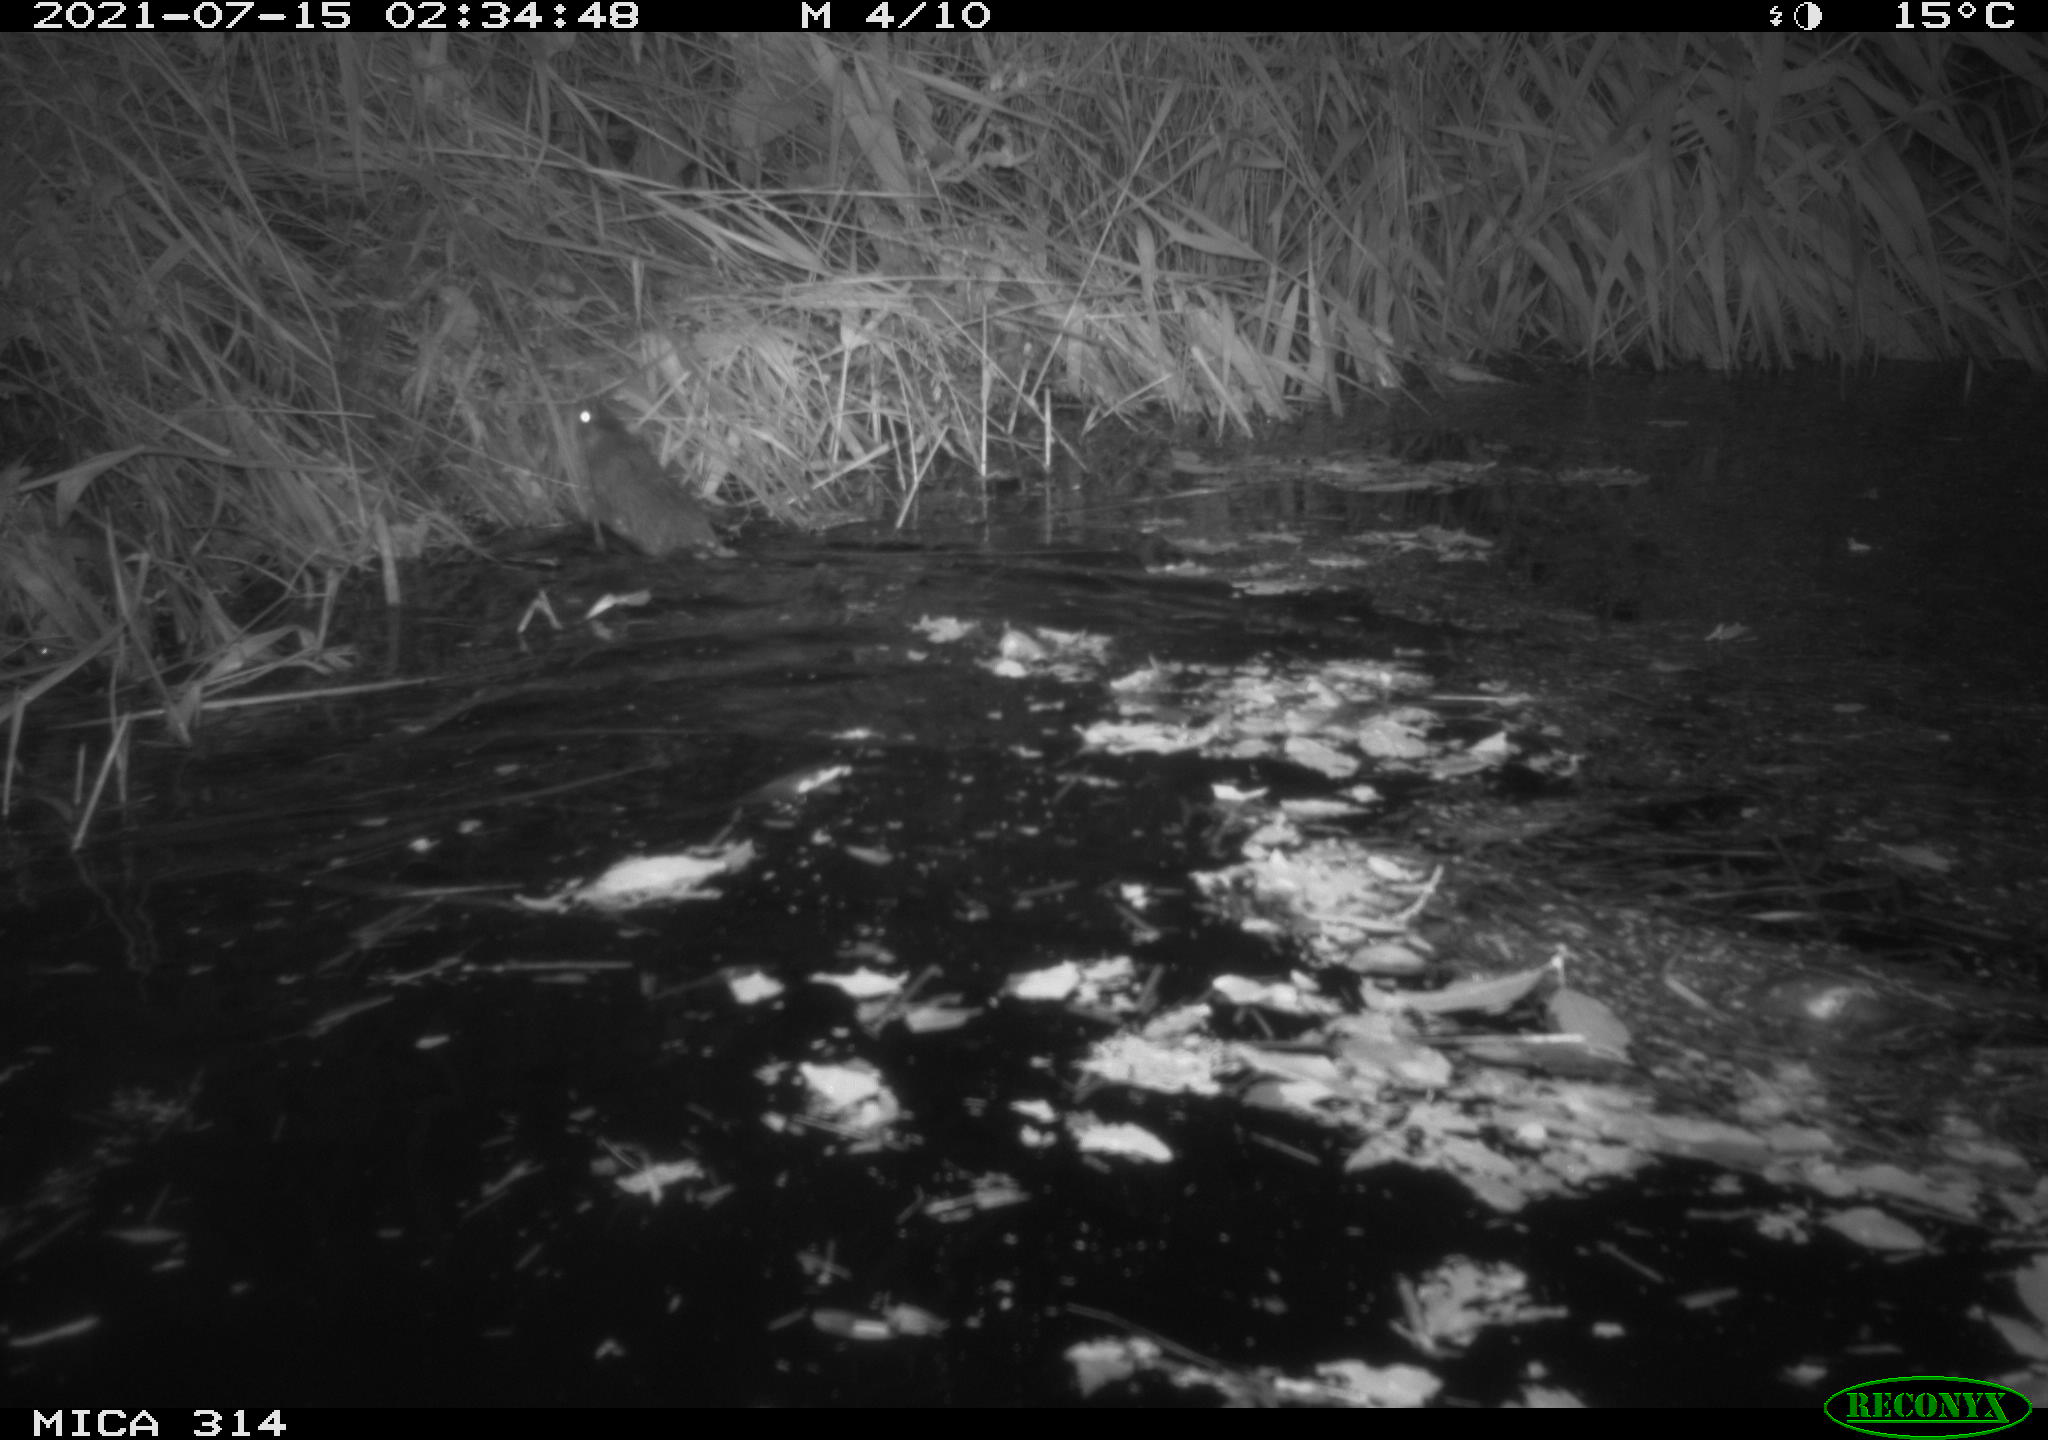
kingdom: Animalia
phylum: Chordata
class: Mammalia
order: Rodentia
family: Muridae
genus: Rattus
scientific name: Rattus norvegicus
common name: Brown rat
